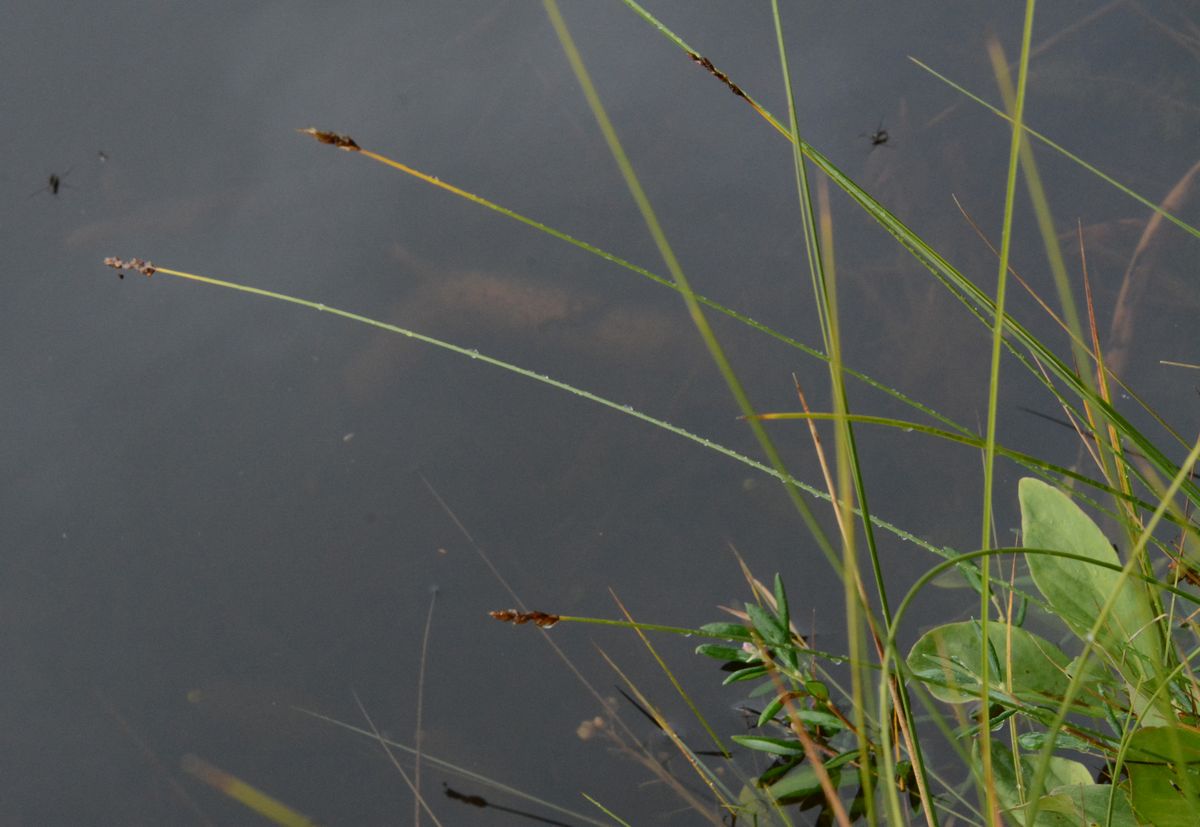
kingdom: Plantae
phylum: Tracheophyta
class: Liliopsida
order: Poales
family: Cyperaceae
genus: Carex
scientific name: Carex diandra
